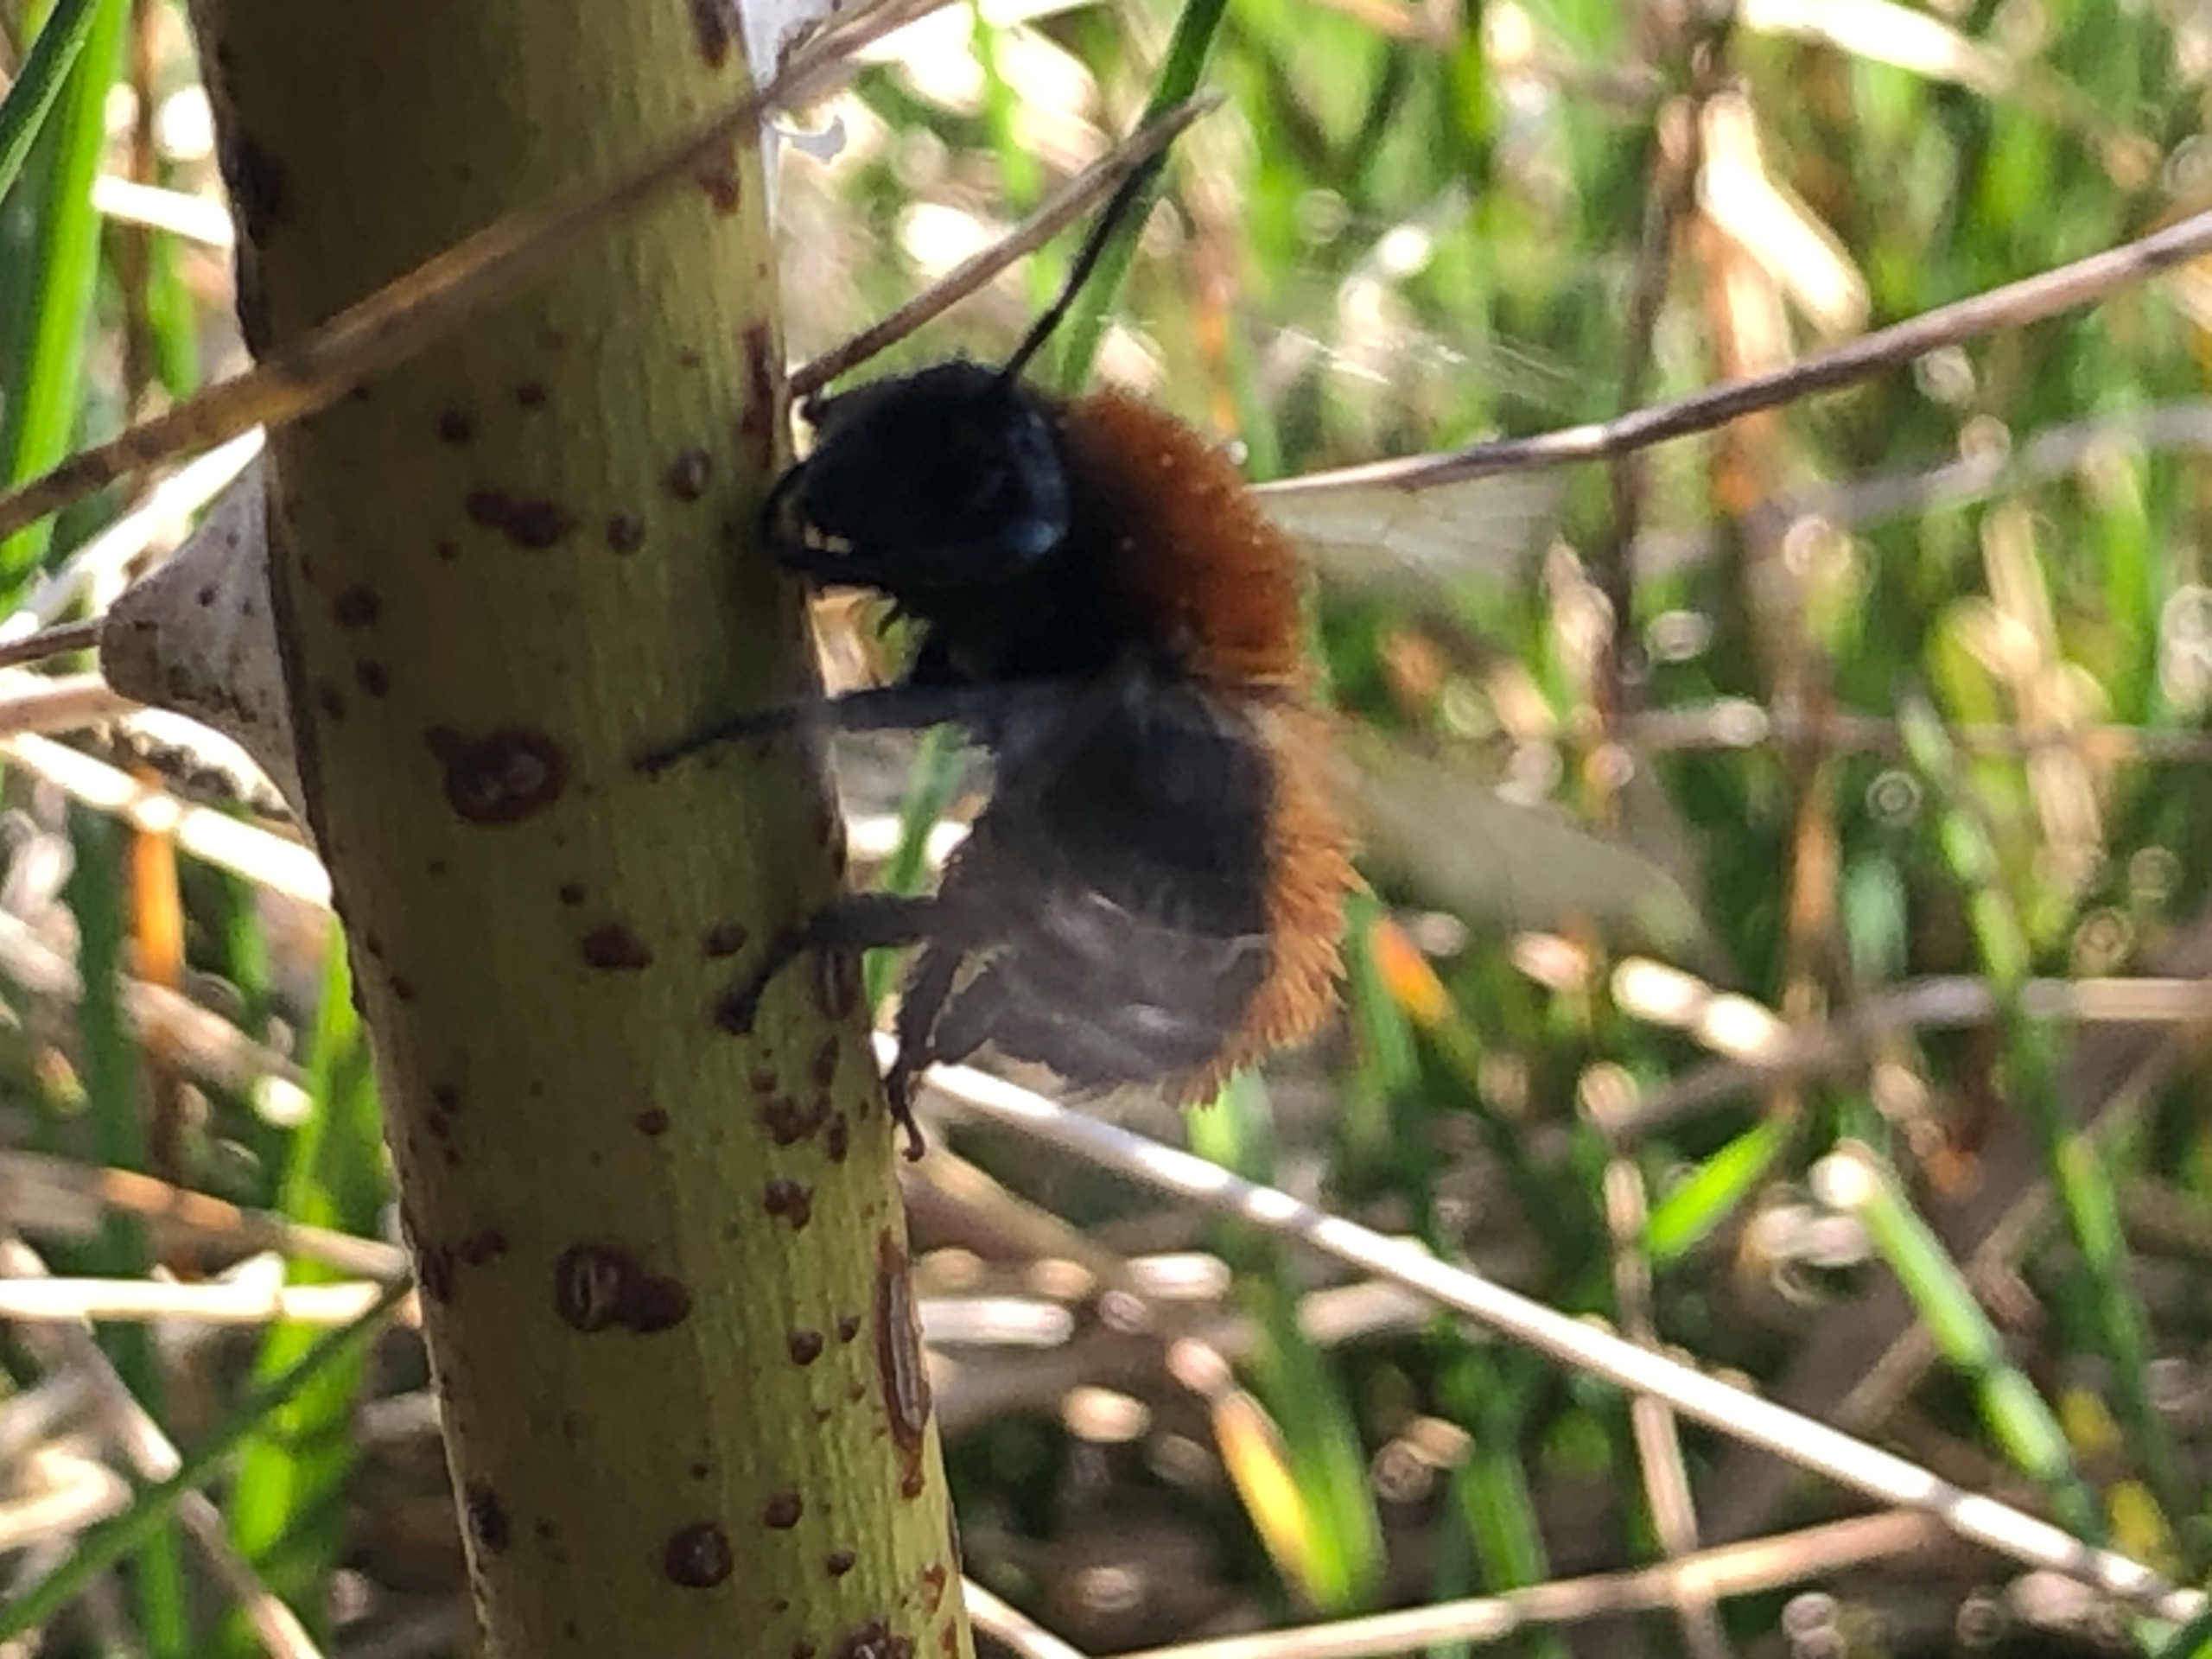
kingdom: Animalia
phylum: Arthropoda
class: Insecta
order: Hymenoptera
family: Andrenidae
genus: Andrena
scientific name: Andrena fulva
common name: Rødpelset jordbi
